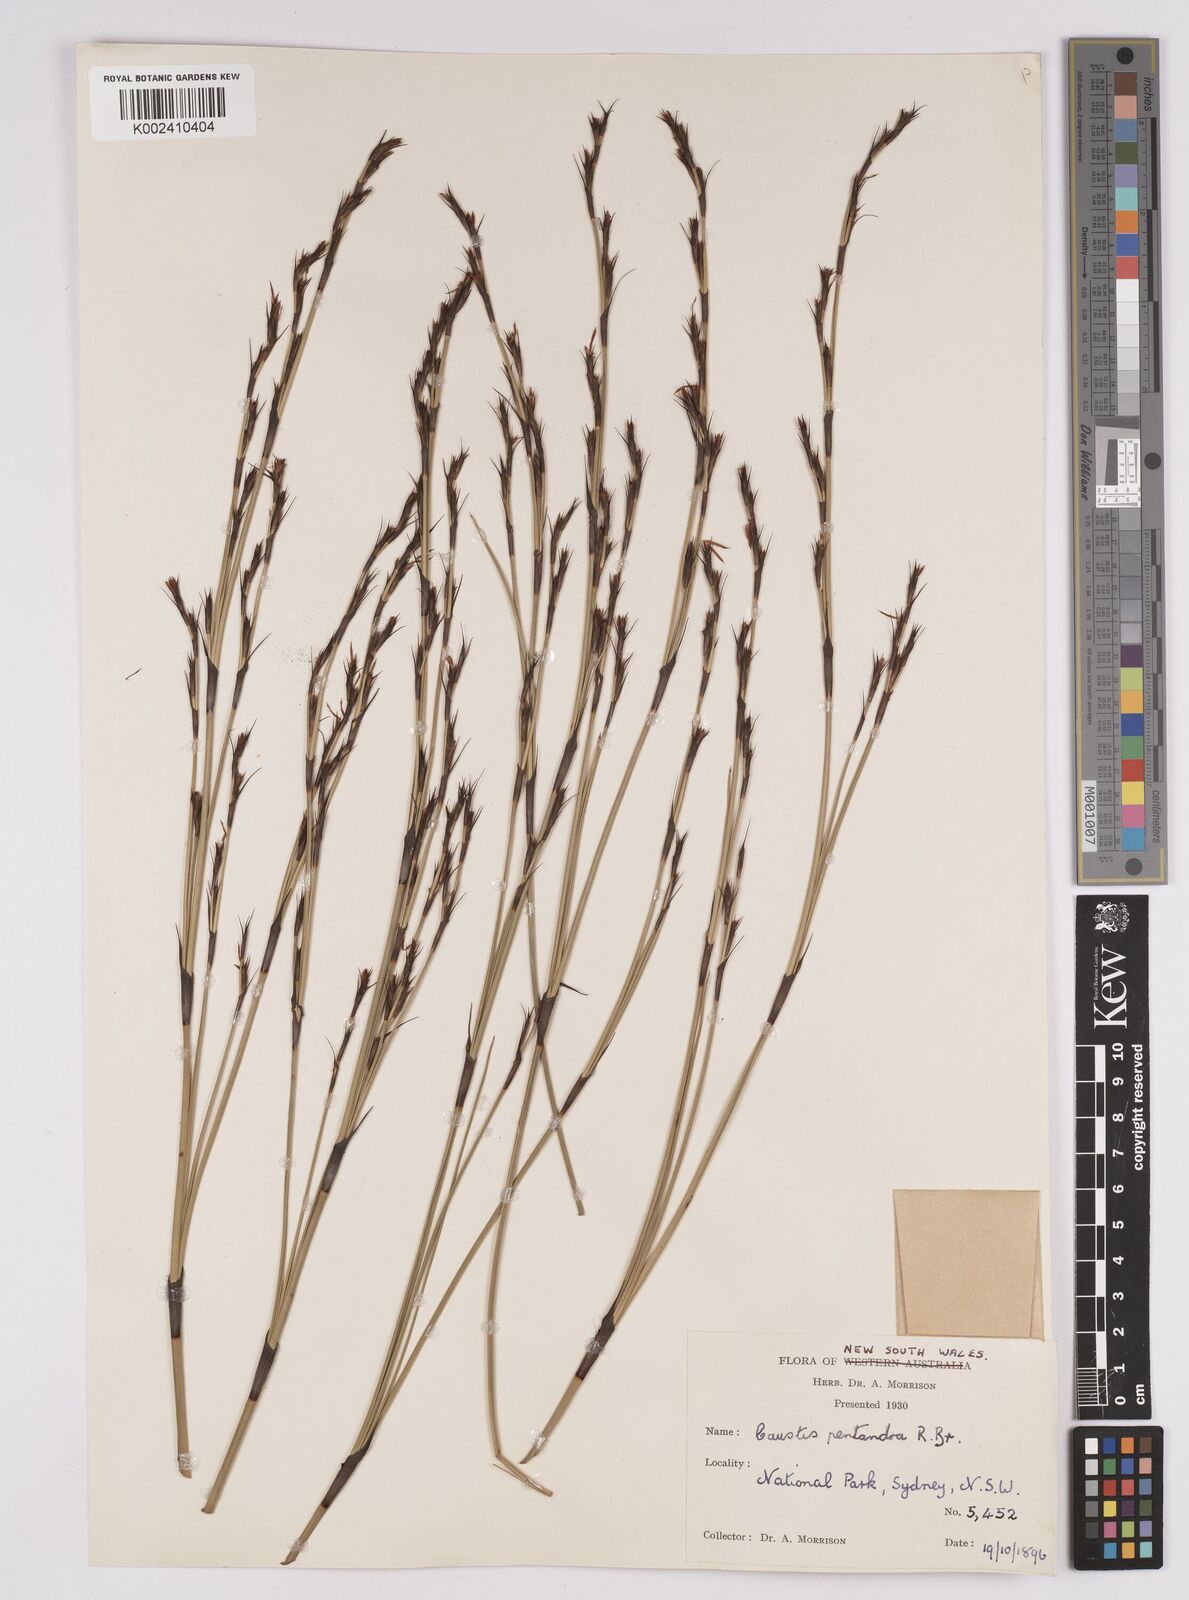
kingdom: Plantae
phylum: Tracheophyta
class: Liliopsida
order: Poales
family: Cyperaceae
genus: Caustis
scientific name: Caustis pentandra
